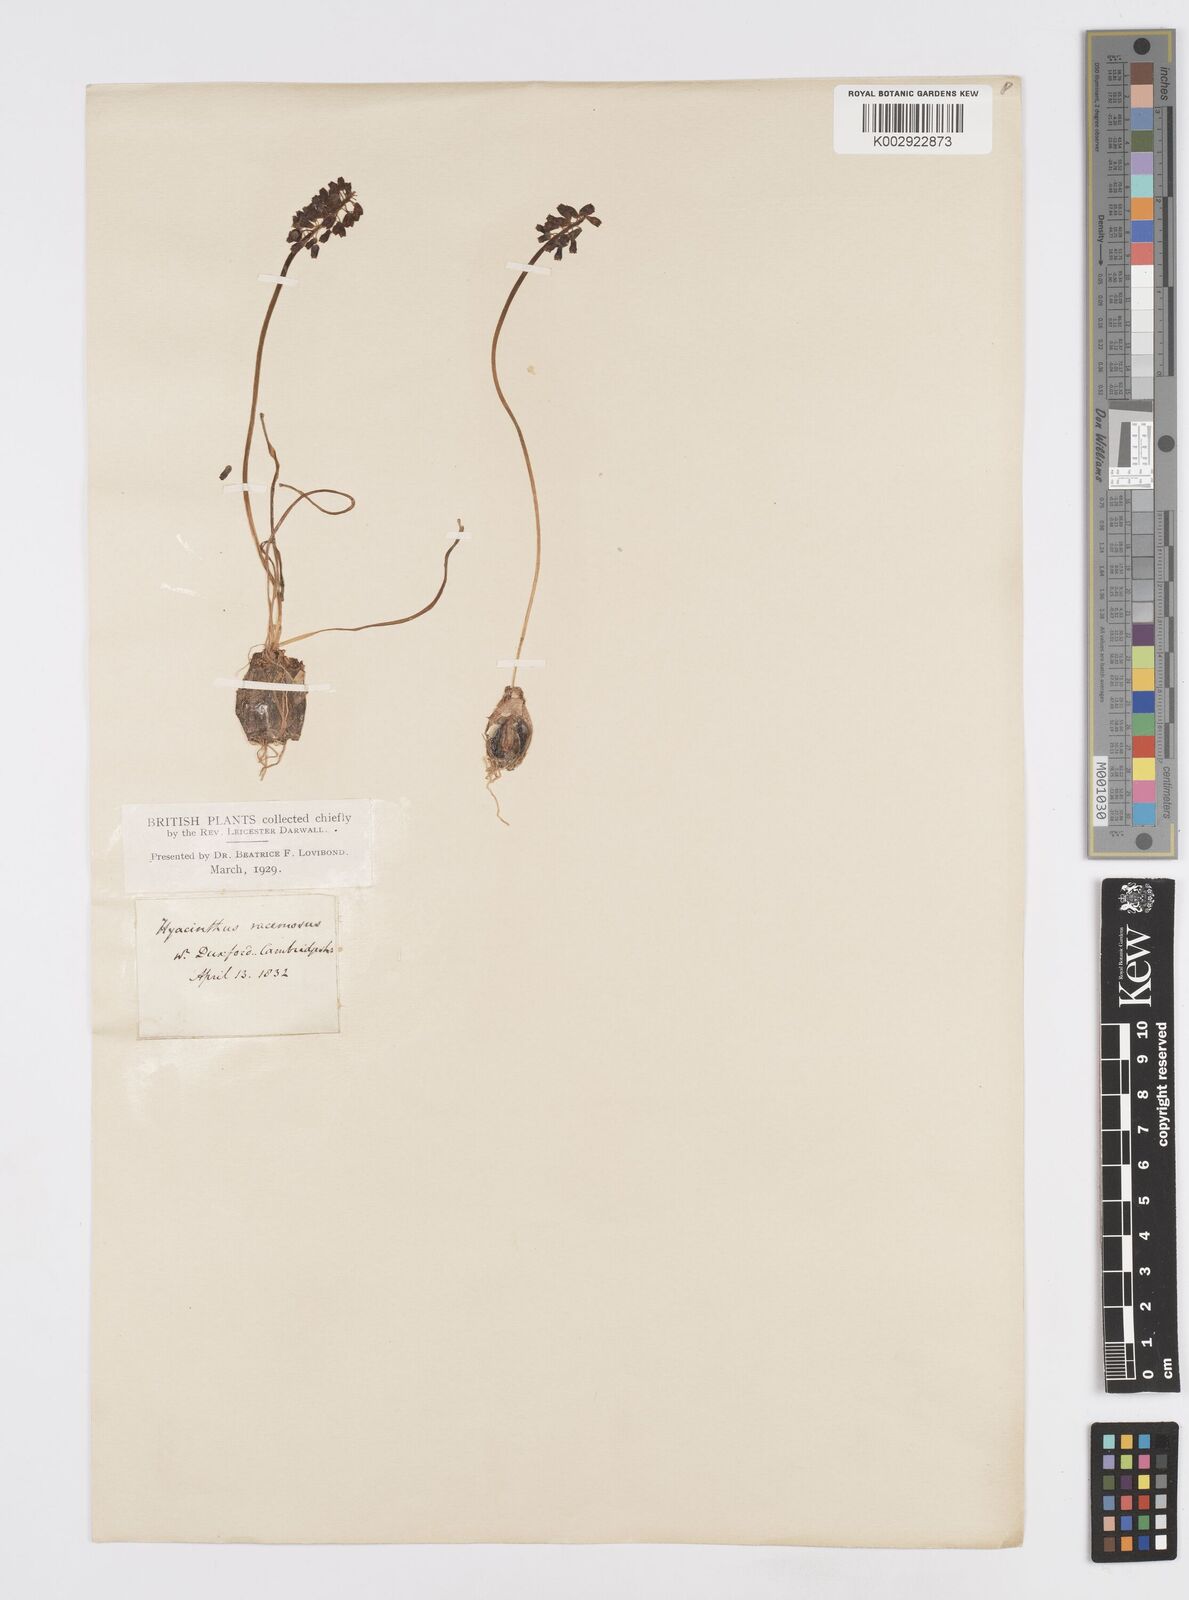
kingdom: Plantae
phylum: Tracheophyta
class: Liliopsida
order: Asparagales
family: Asparagaceae
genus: Muscari
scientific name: Muscari neglectum
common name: Grape-hyacinth
